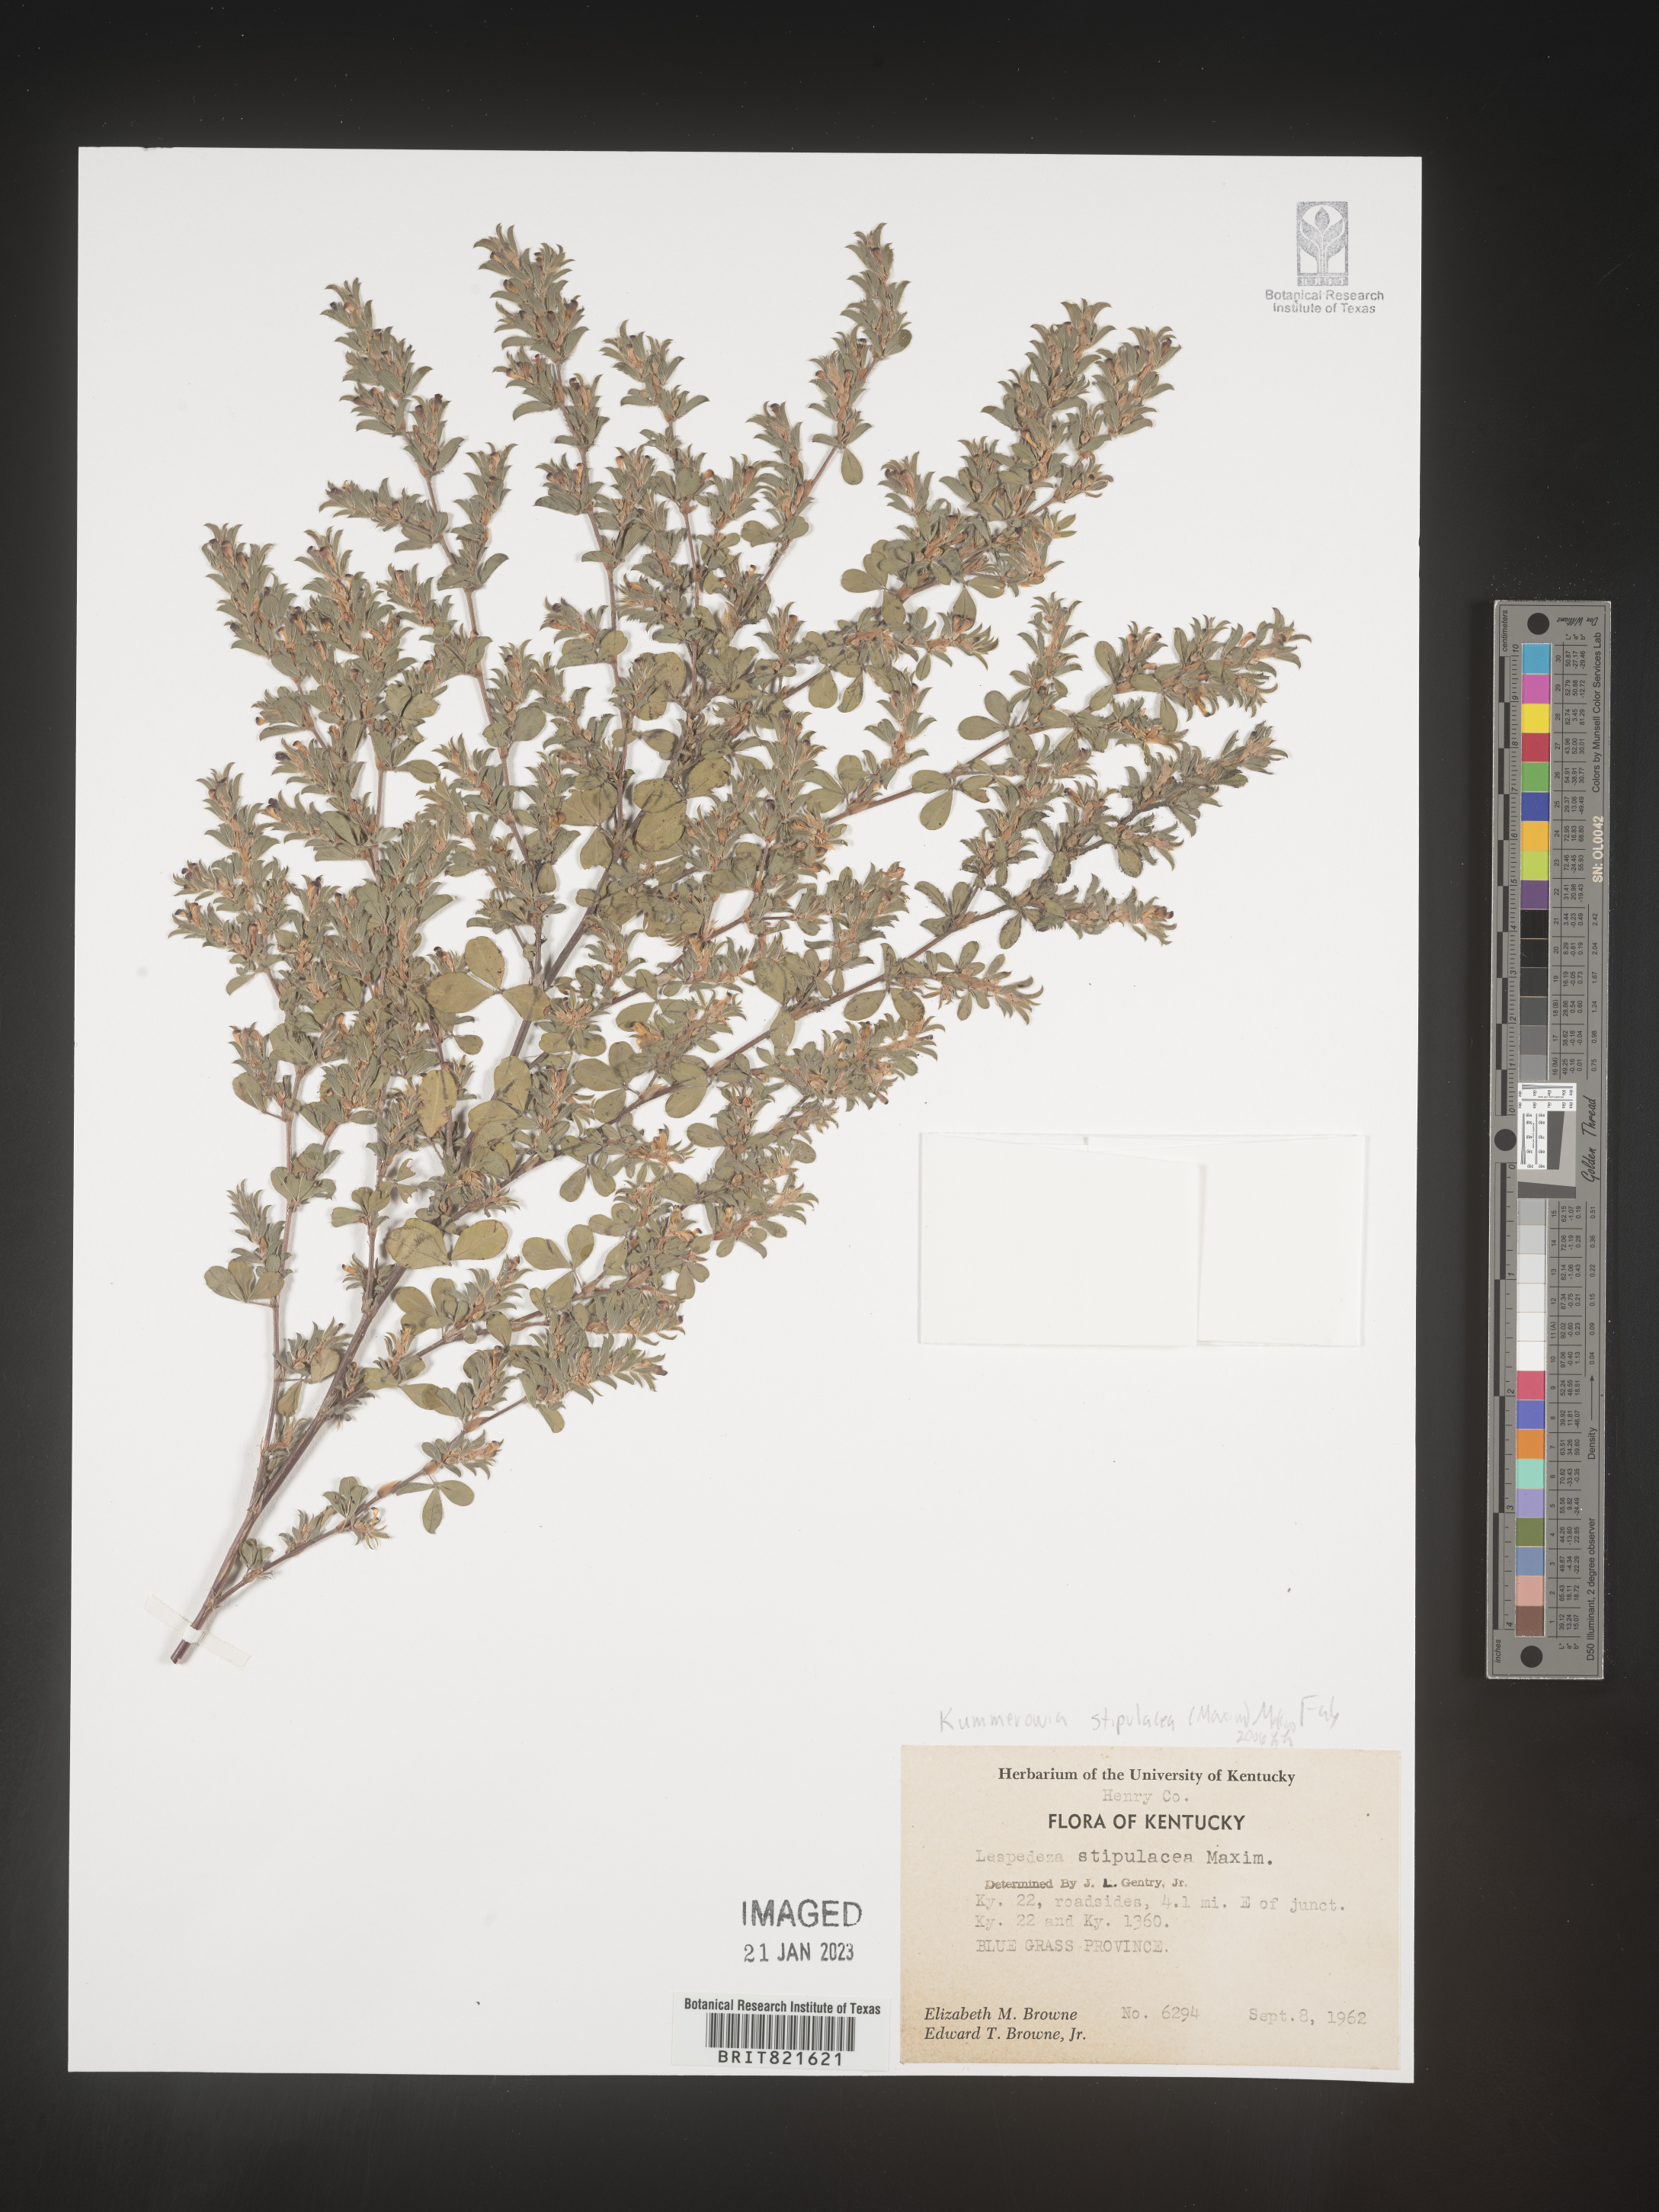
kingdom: Plantae
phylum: Tracheophyta
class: Magnoliopsida
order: Fabales
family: Fabaceae
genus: Kummerowia
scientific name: Kummerowia
